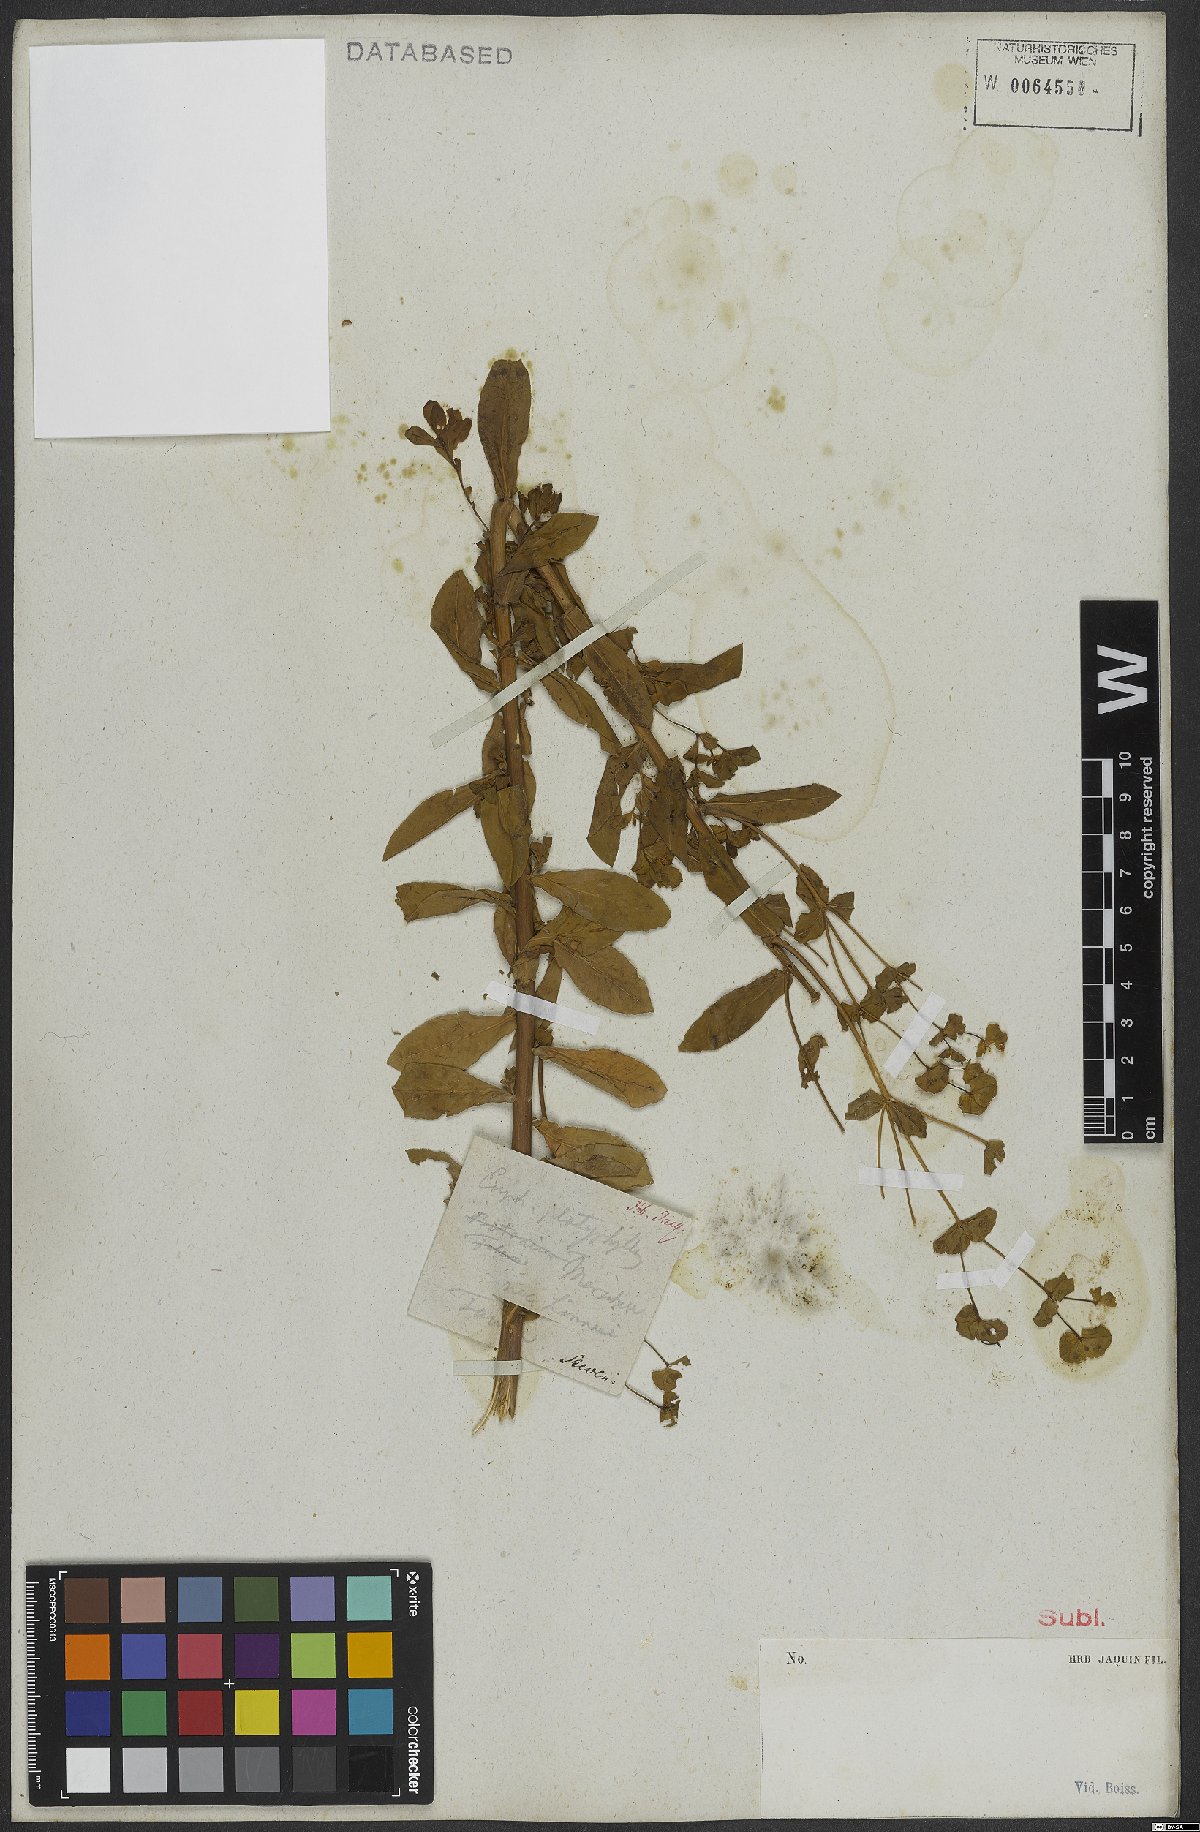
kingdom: Plantae
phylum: Tracheophyta
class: Magnoliopsida
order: Malpighiales
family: Euphorbiaceae
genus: Euphorbia
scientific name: Euphorbia platyphyllos
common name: Broad-leaved spurge
